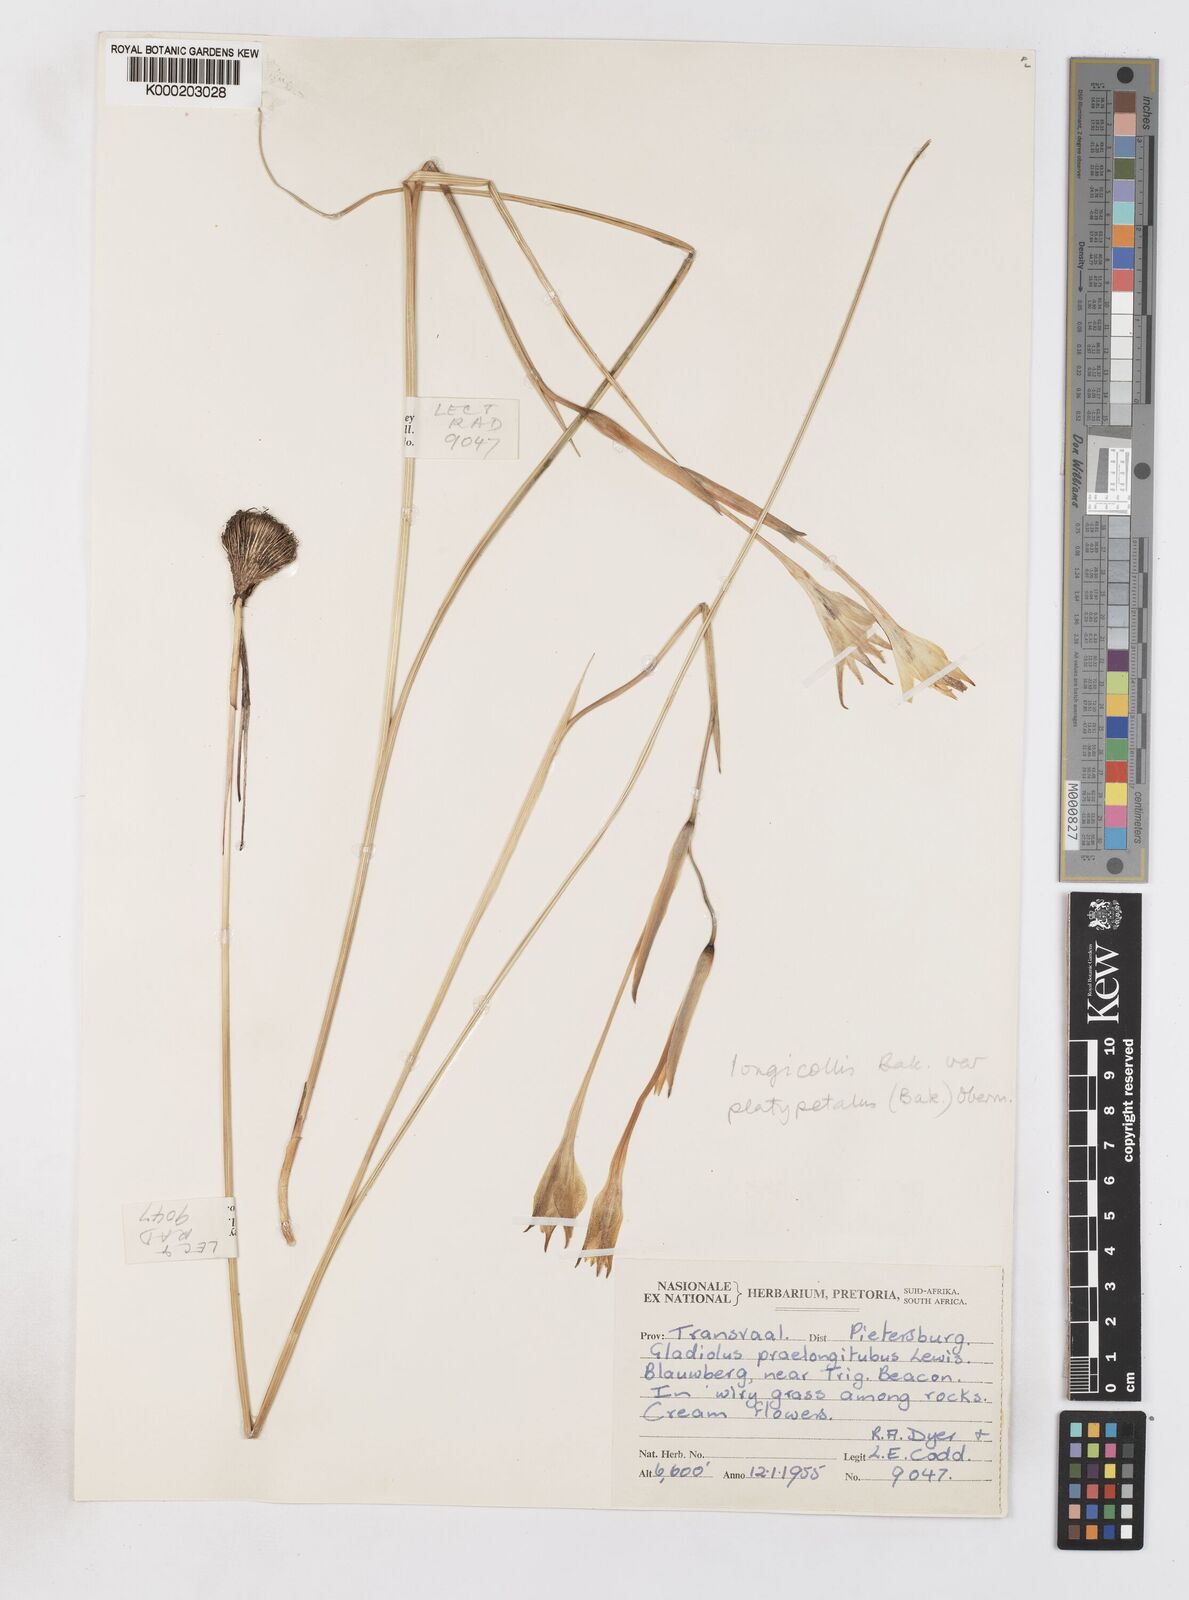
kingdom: Plantae
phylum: Tracheophyta
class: Liliopsida
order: Asparagales
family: Iridaceae
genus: Gladiolus
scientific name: Gladiolus longicollis
